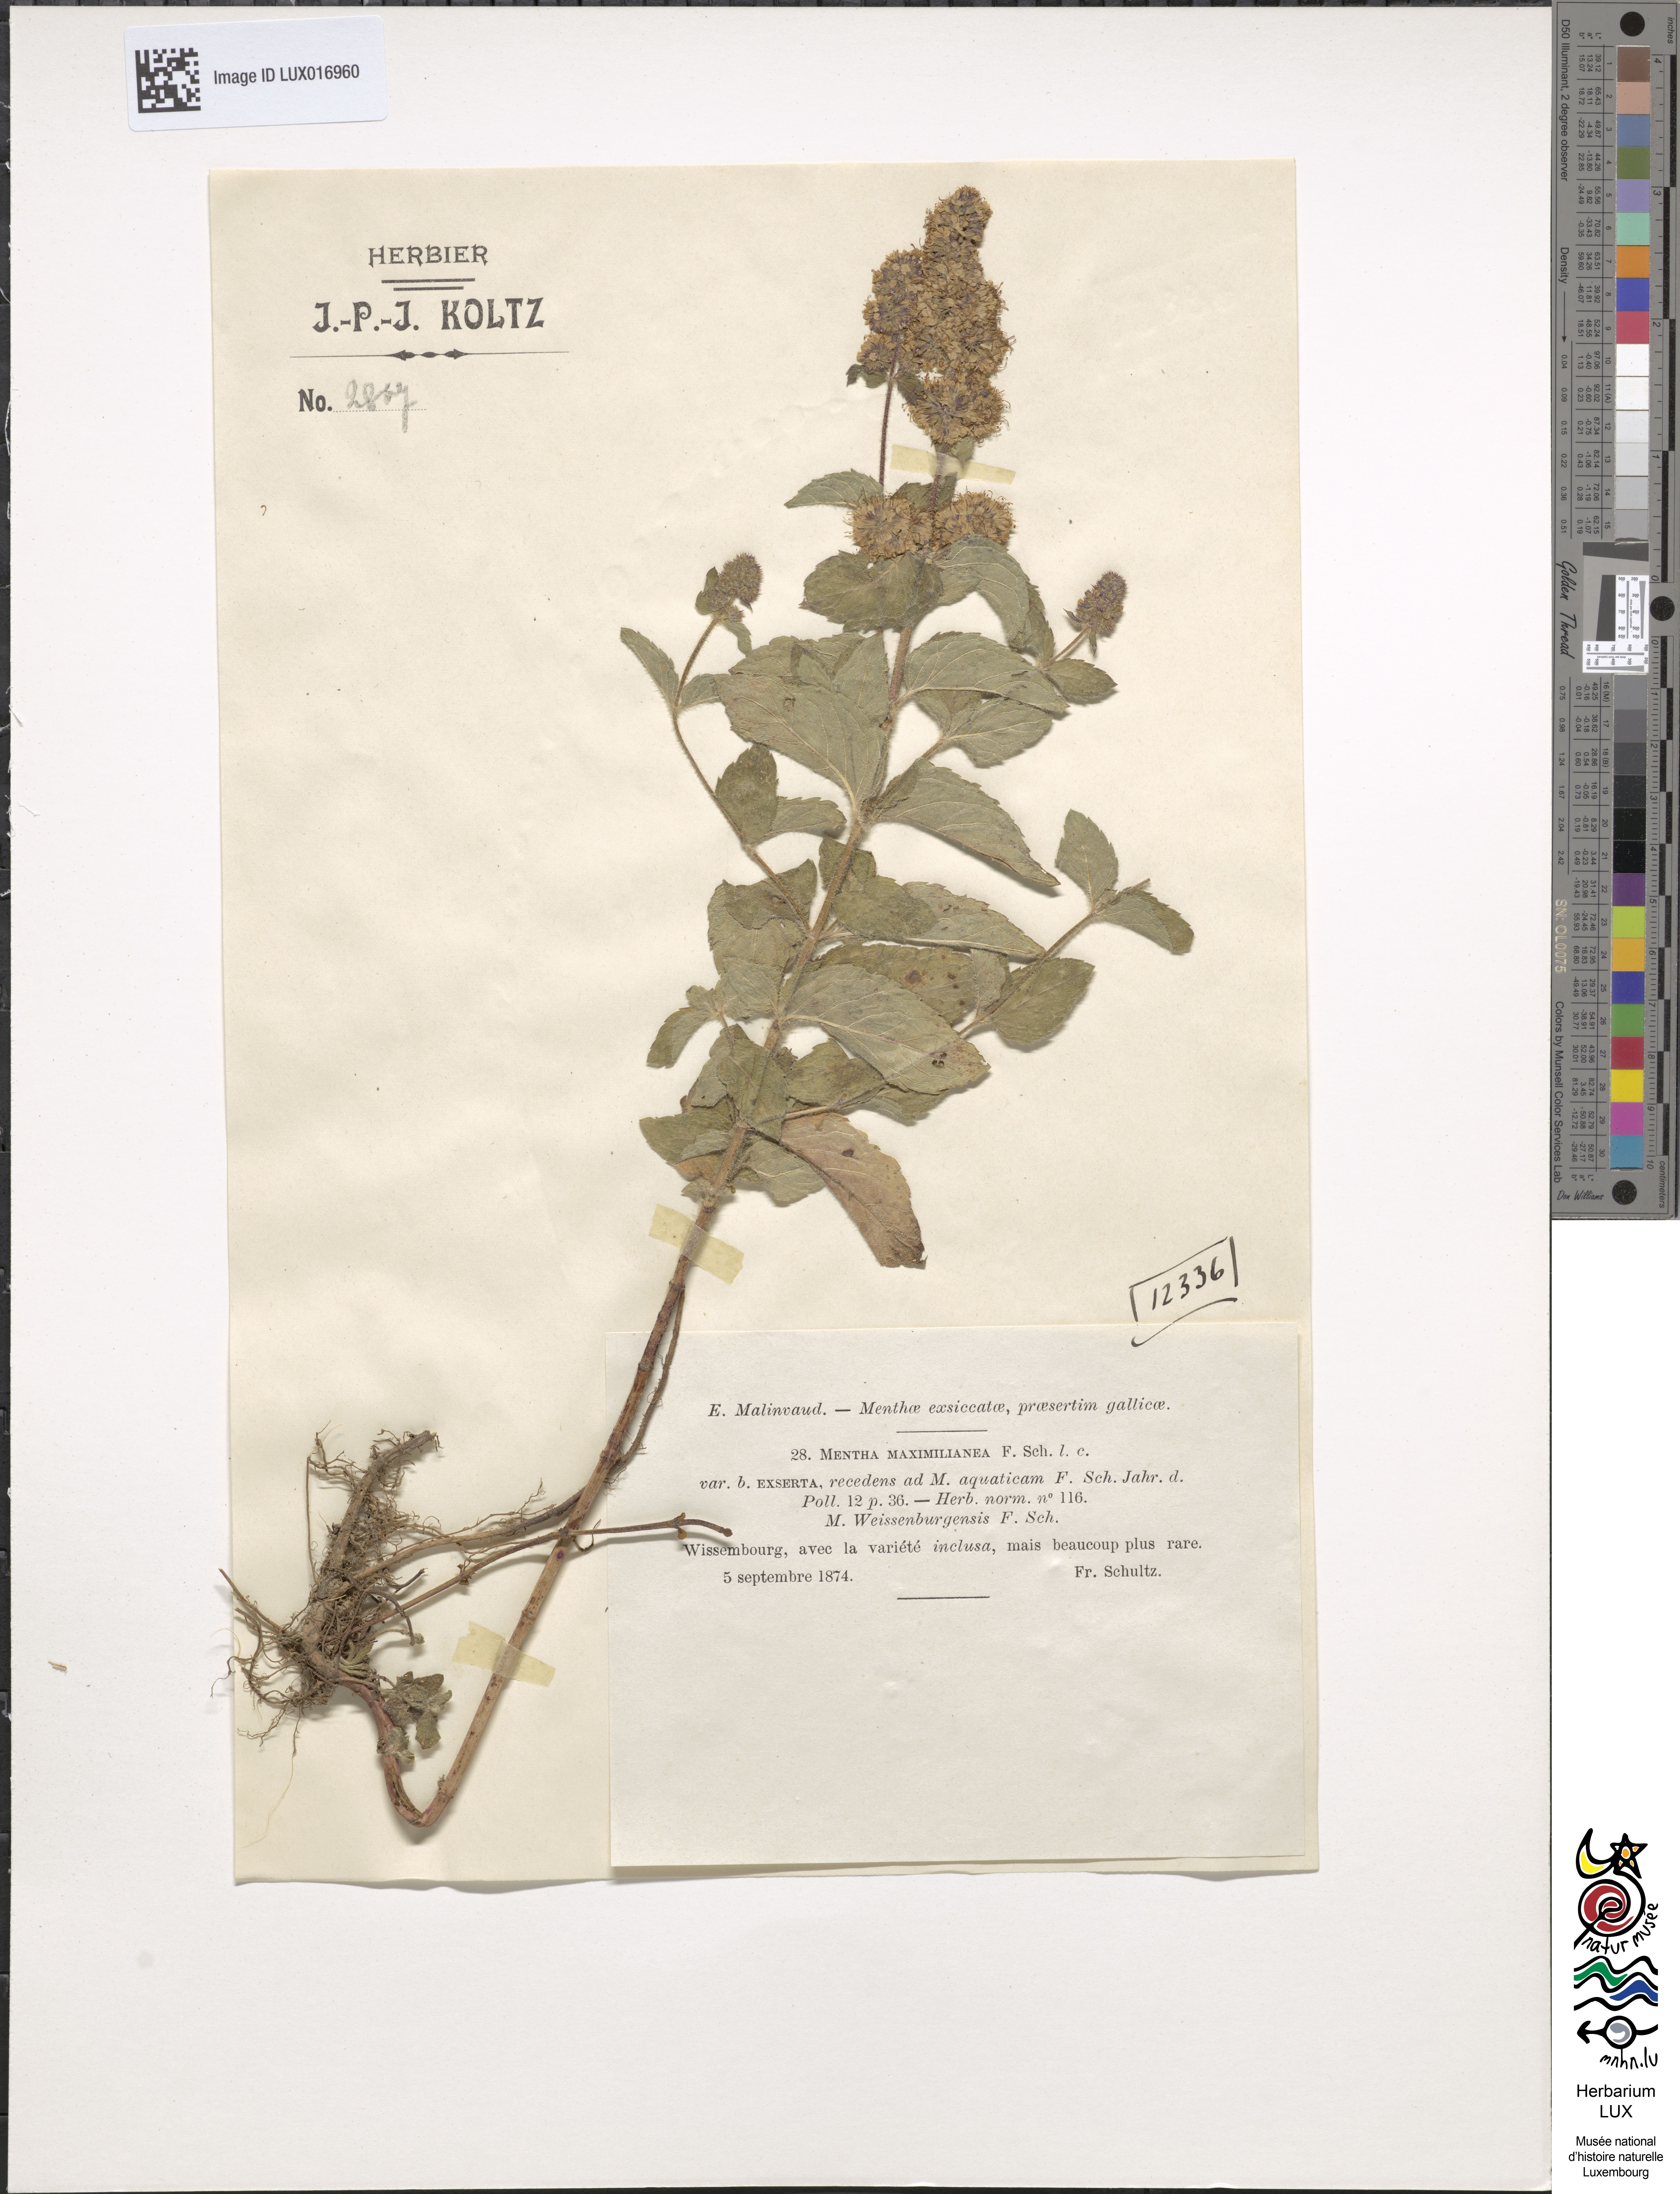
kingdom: Plantae
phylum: Tracheophyta
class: Magnoliopsida
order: Lamiales
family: Lamiaceae
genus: Mentha
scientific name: Mentha suavis
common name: Sweet mint
